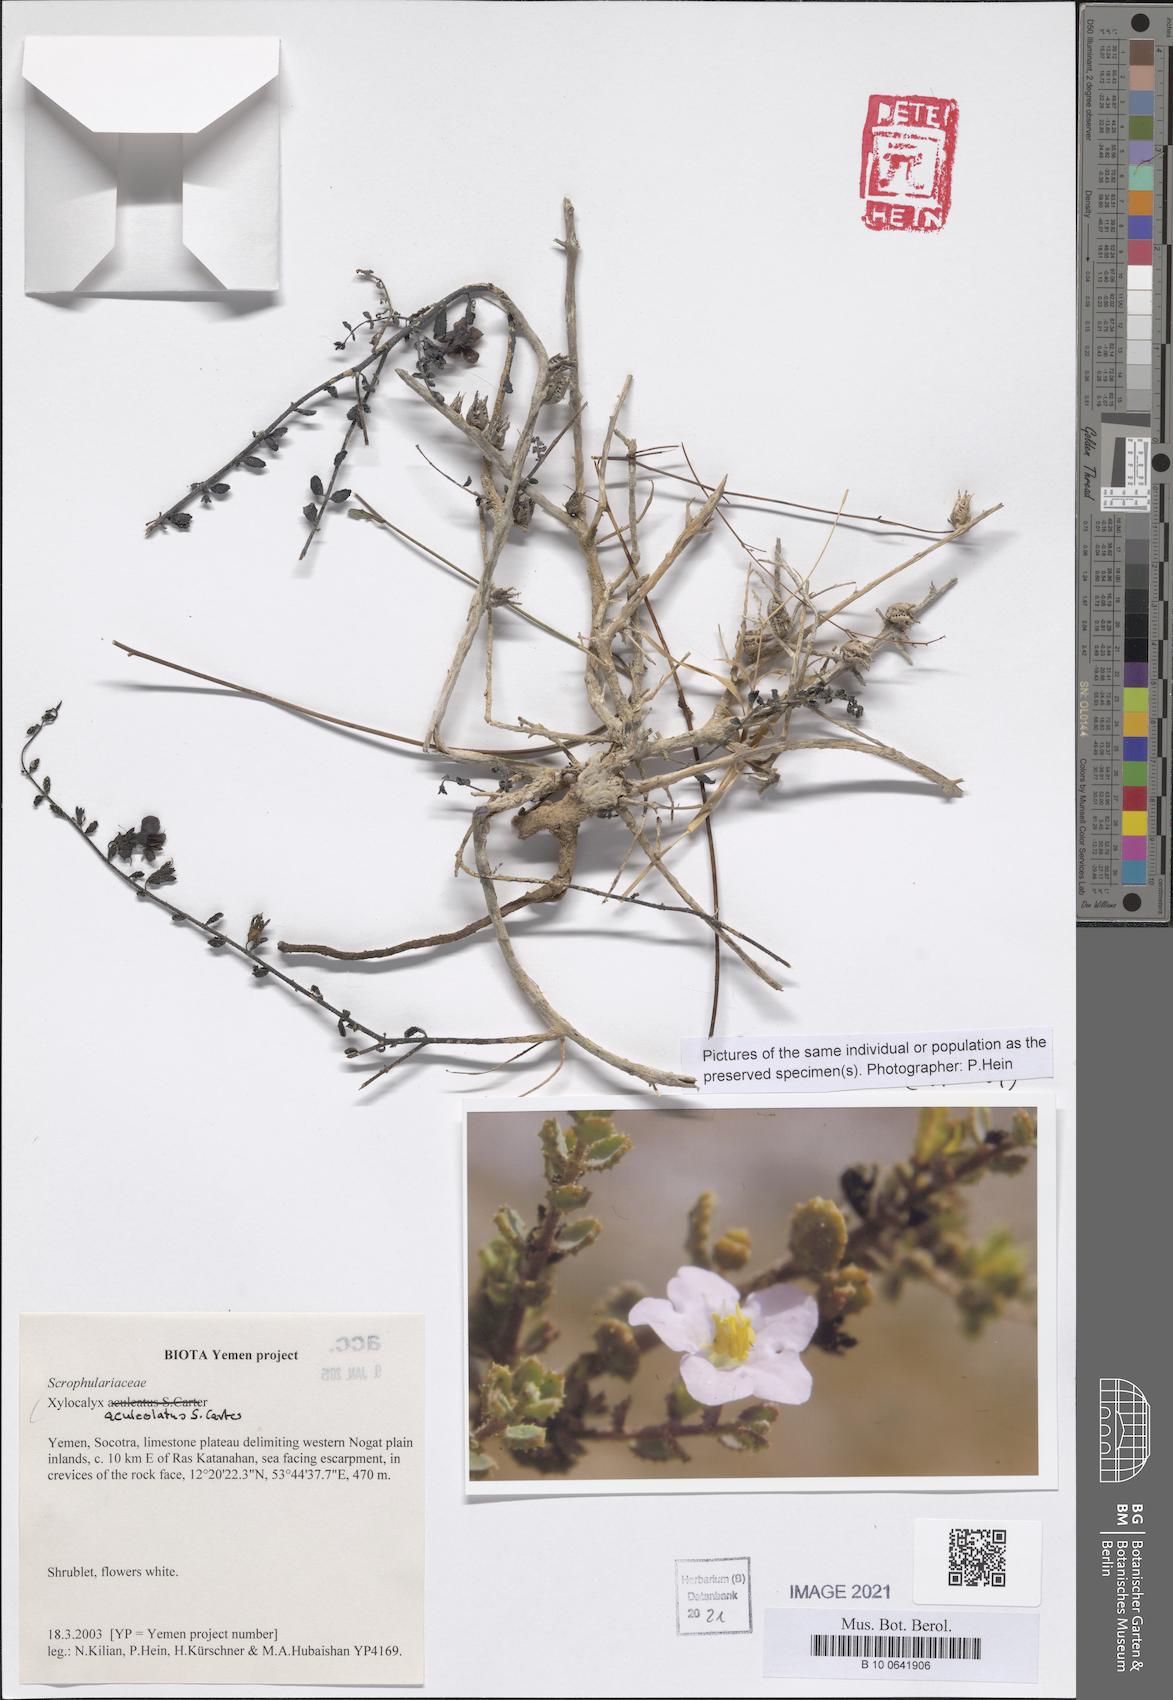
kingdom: Plantae
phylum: Tracheophyta
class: Magnoliopsida
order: Lamiales
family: Orobanchaceae
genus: Xylocalyx
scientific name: Xylocalyx aculeolatus
